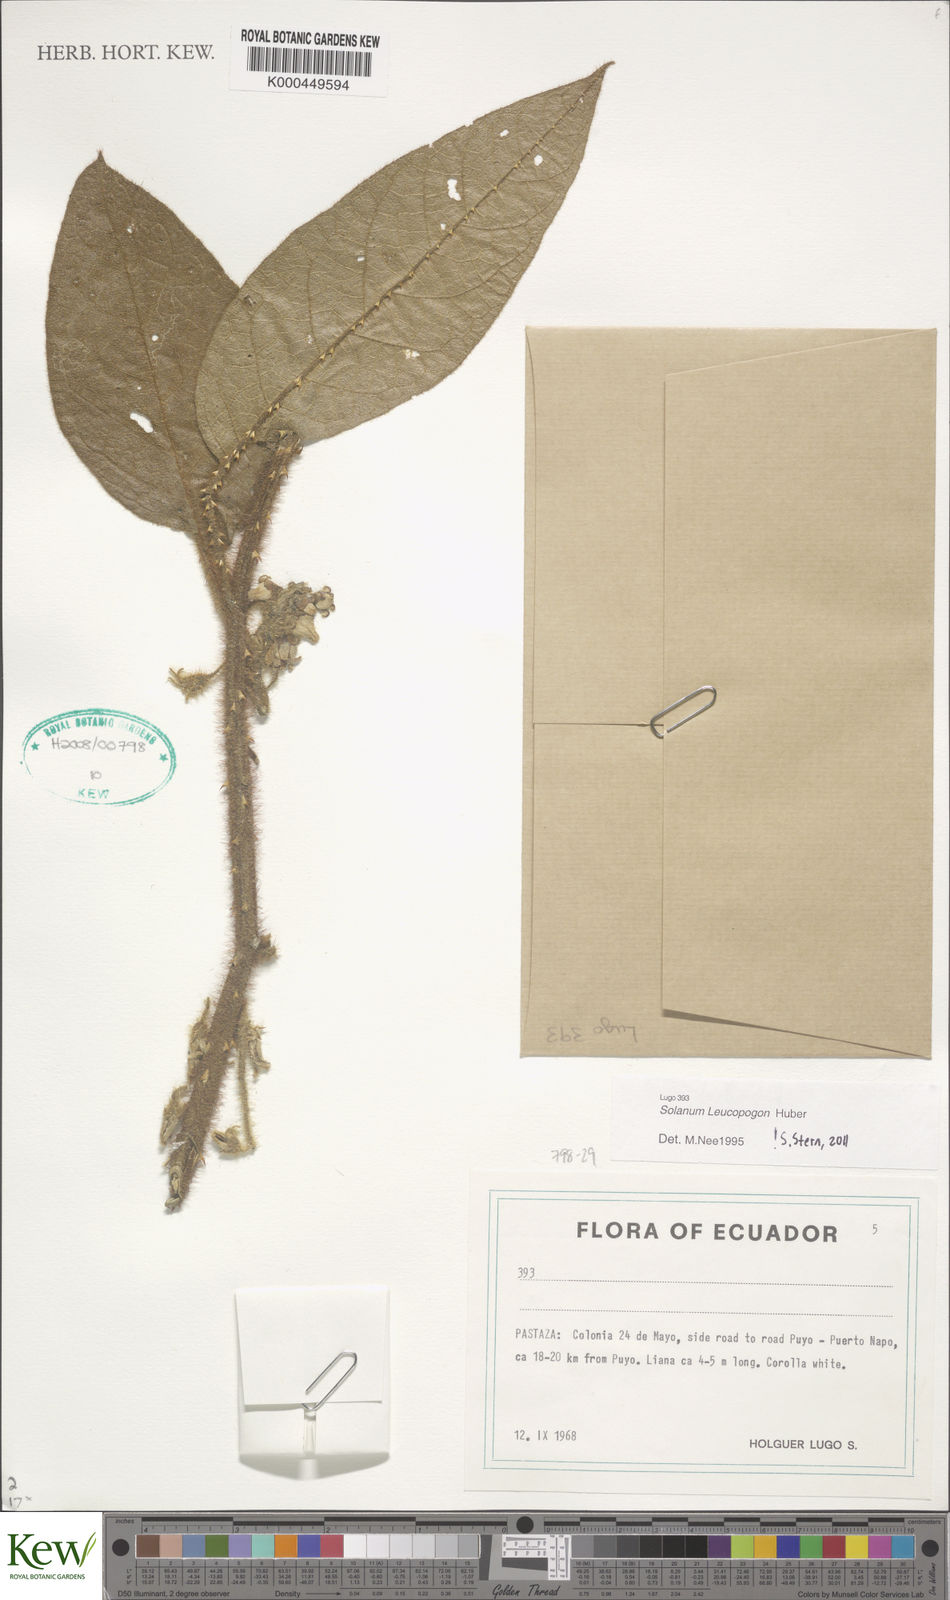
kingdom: Plantae
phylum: Tracheophyta
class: Magnoliopsida
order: Solanales
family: Solanaceae
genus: Solanum
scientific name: Solanum leucopogon
